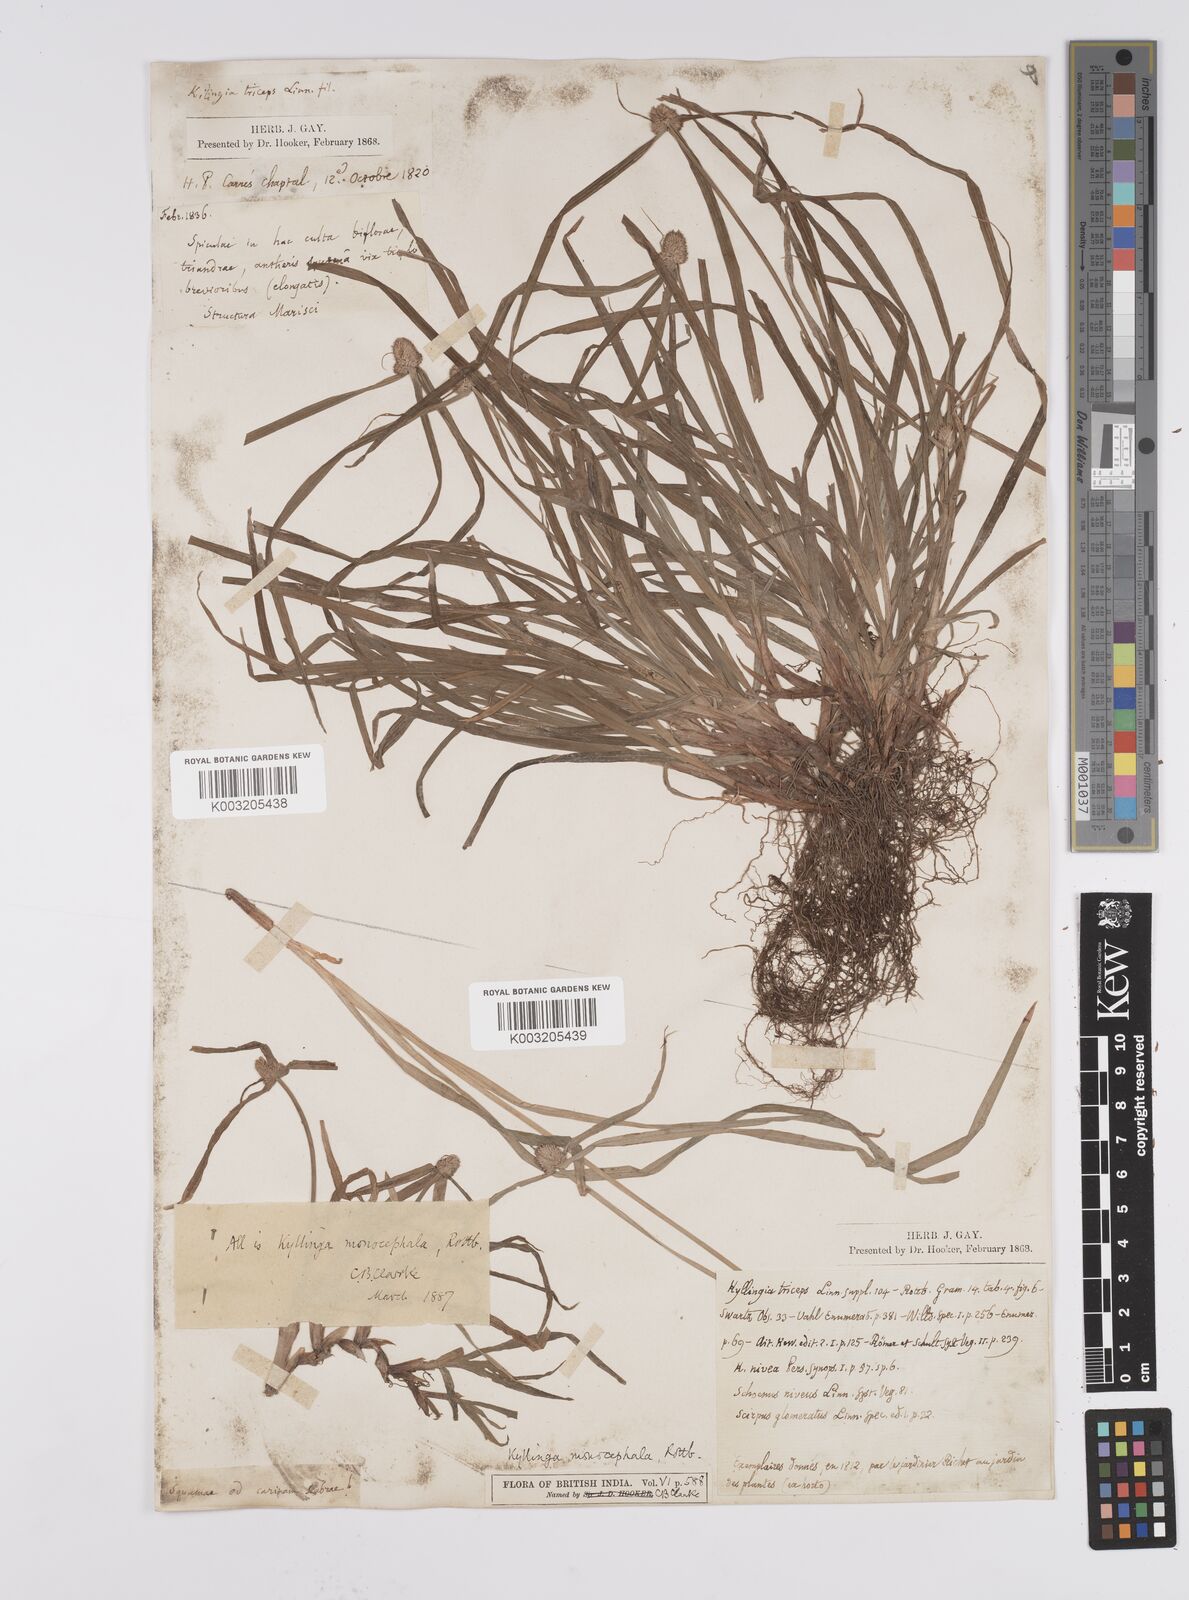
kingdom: Plantae
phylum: Tracheophyta
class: Liliopsida
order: Poales
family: Cyperaceae
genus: Cyperus
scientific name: Cyperus nemoralis
